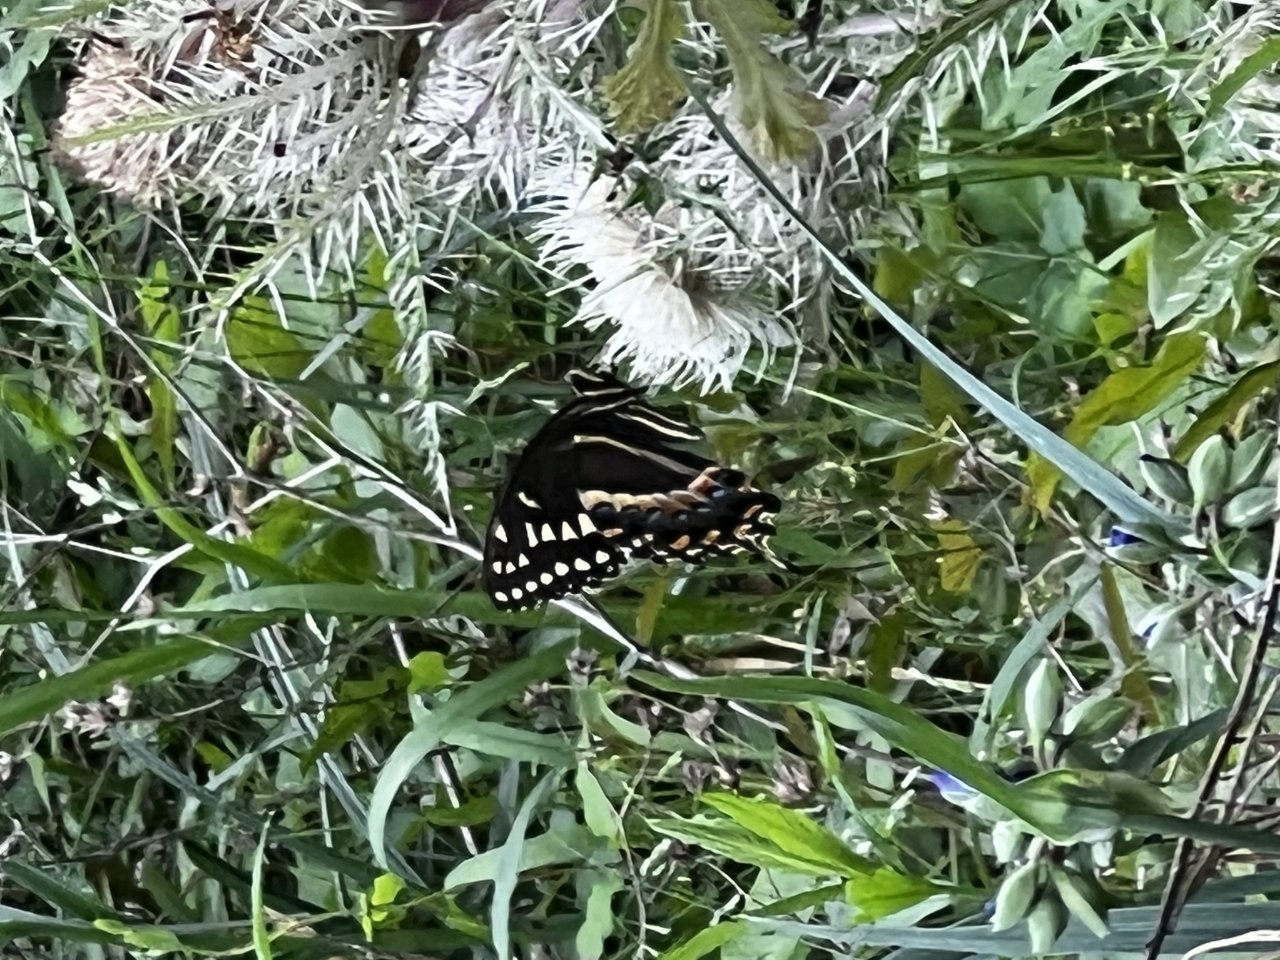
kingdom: Animalia
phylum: Arthropoda
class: Insecta
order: Lepidoptera
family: Papilionidae
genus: Pterourus
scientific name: Pterourus palamedes
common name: Palamedes Swallowtail
